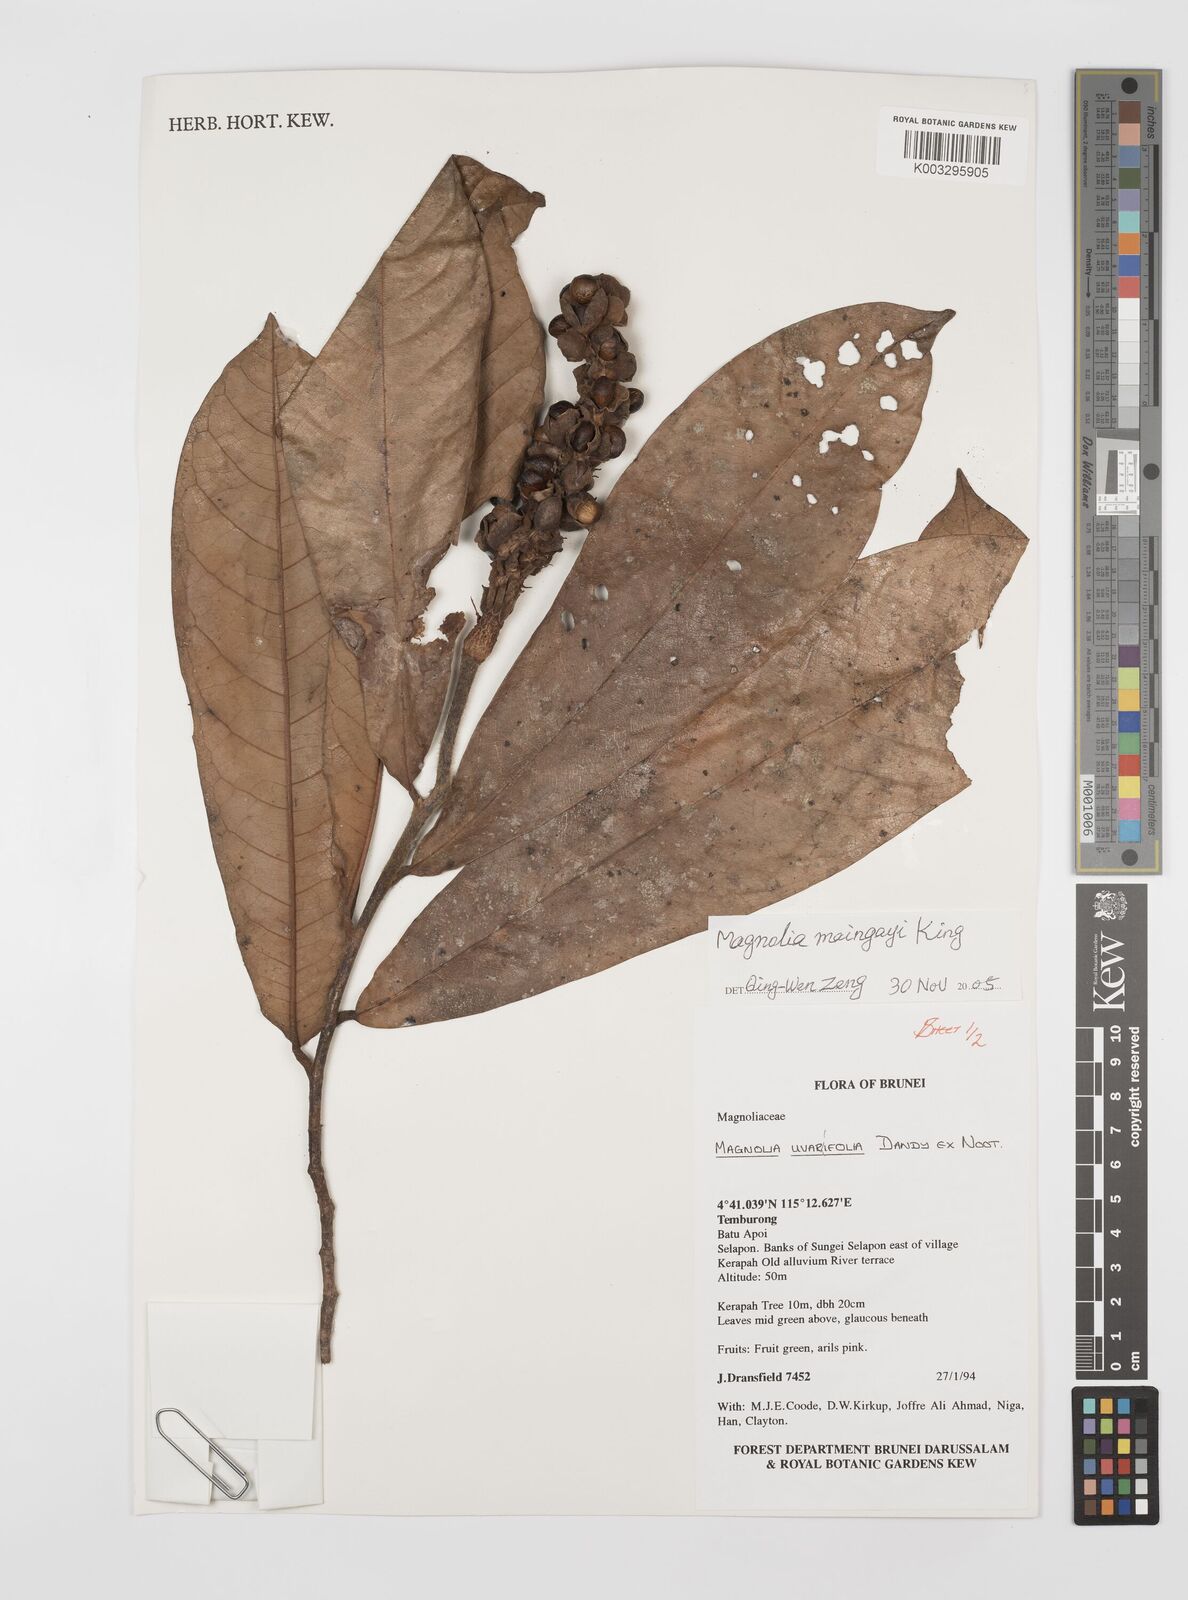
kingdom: Plantae
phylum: Tracheophyta
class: Magnoliopsida
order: Magnoliales
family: Magnoliaceae
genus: Magnolia
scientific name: Magnolia macklottii
